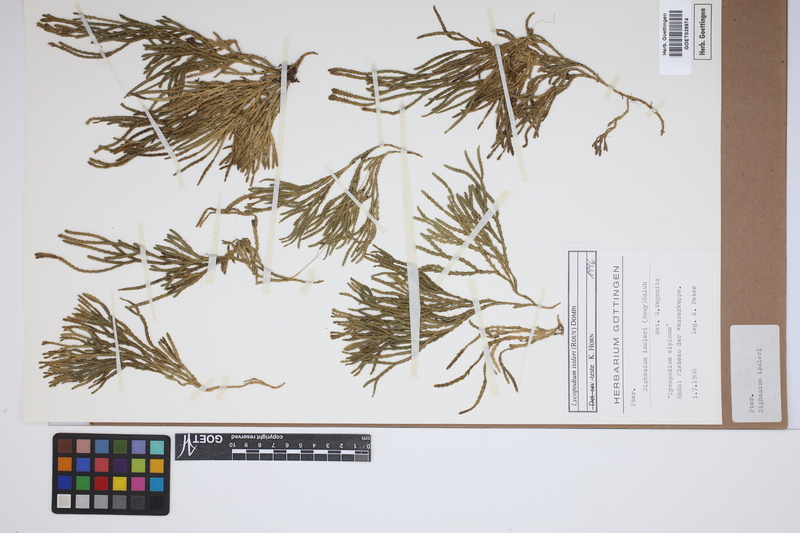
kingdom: Plantae
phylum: Tracheophyta
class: Lycopodiopsida
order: Lycopodiales
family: Lycopodiaceae
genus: Diphasiastrum
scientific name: Diphasiastrum issleri
